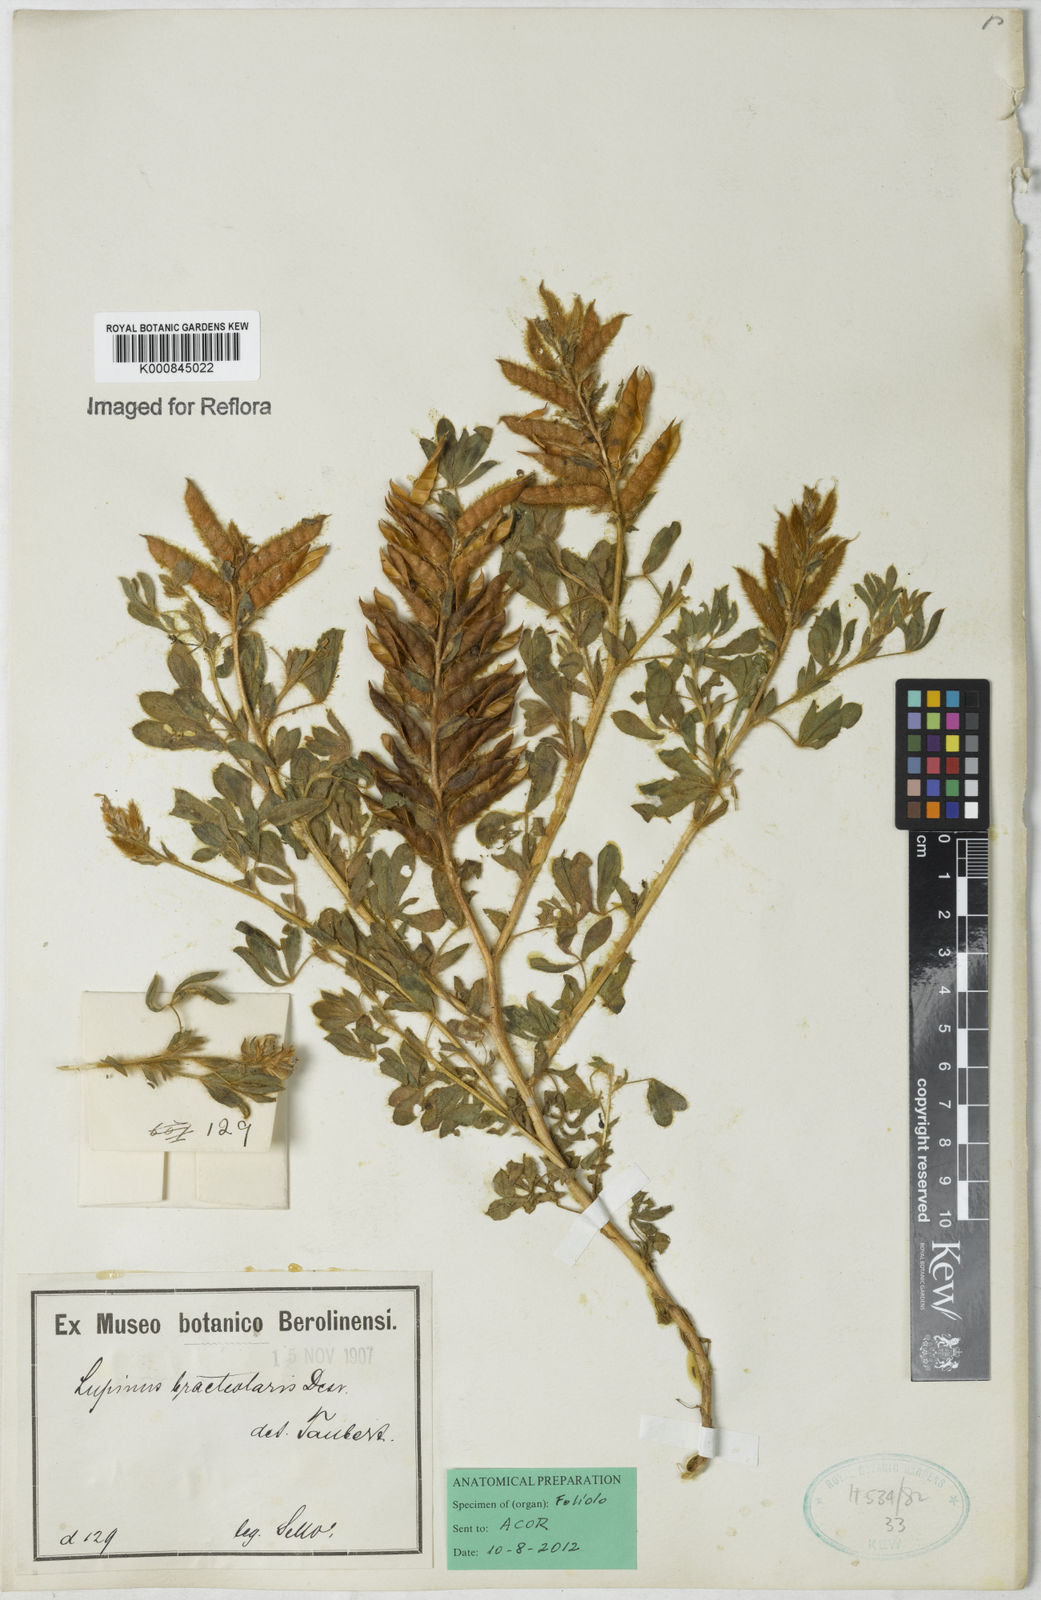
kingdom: Plantae
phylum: Tracheophyta
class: Magnoliopsida
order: Fabales
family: Fabaceae
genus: Lupinus
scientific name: Lupinus bracteolaris
